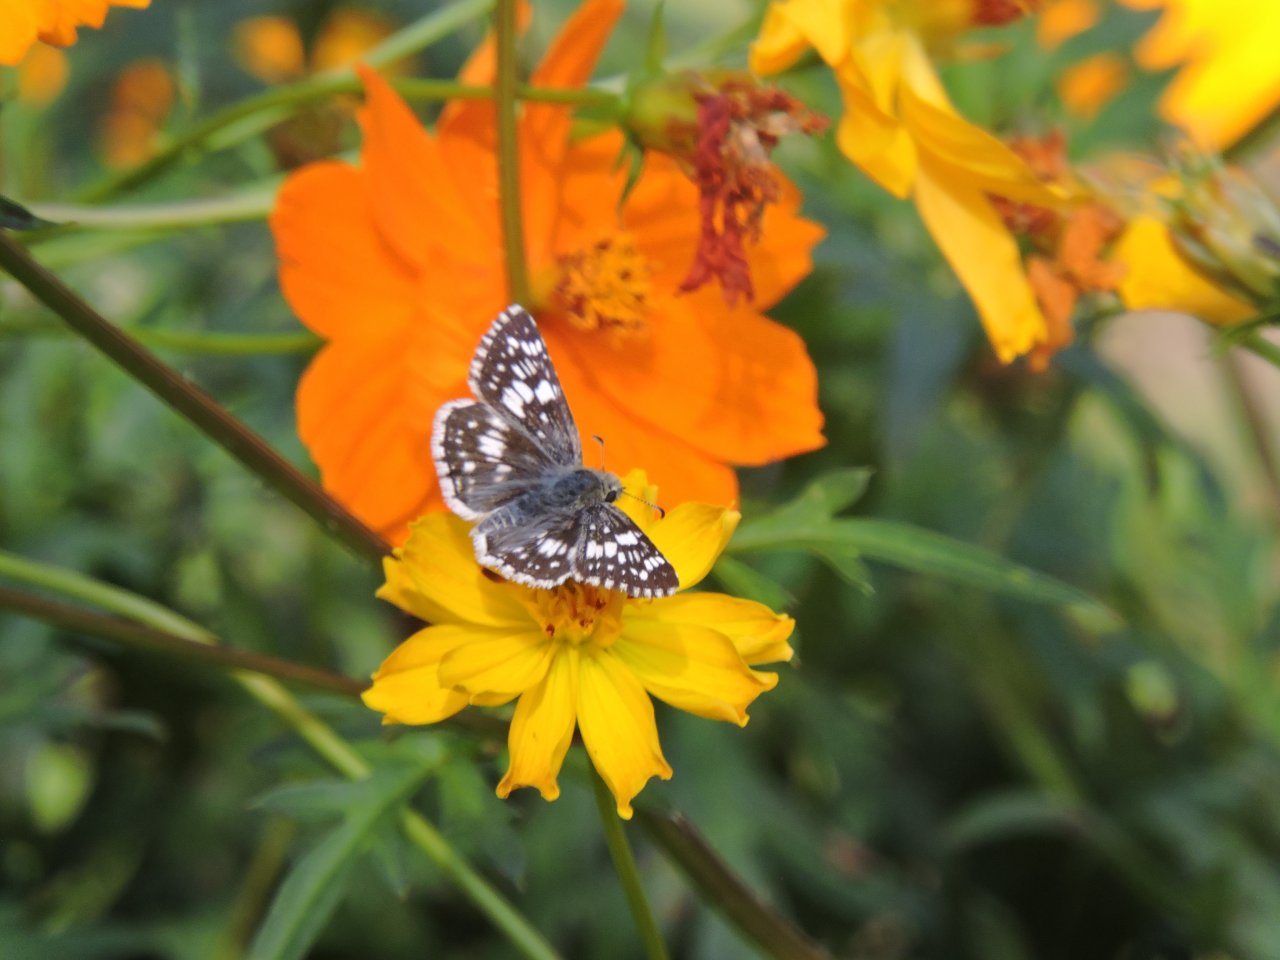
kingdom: Animalia
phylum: Arthropoda
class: Insecta
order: Lepidoptera
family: Hesperiidae
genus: Pyrgus
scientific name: Pyrgus
